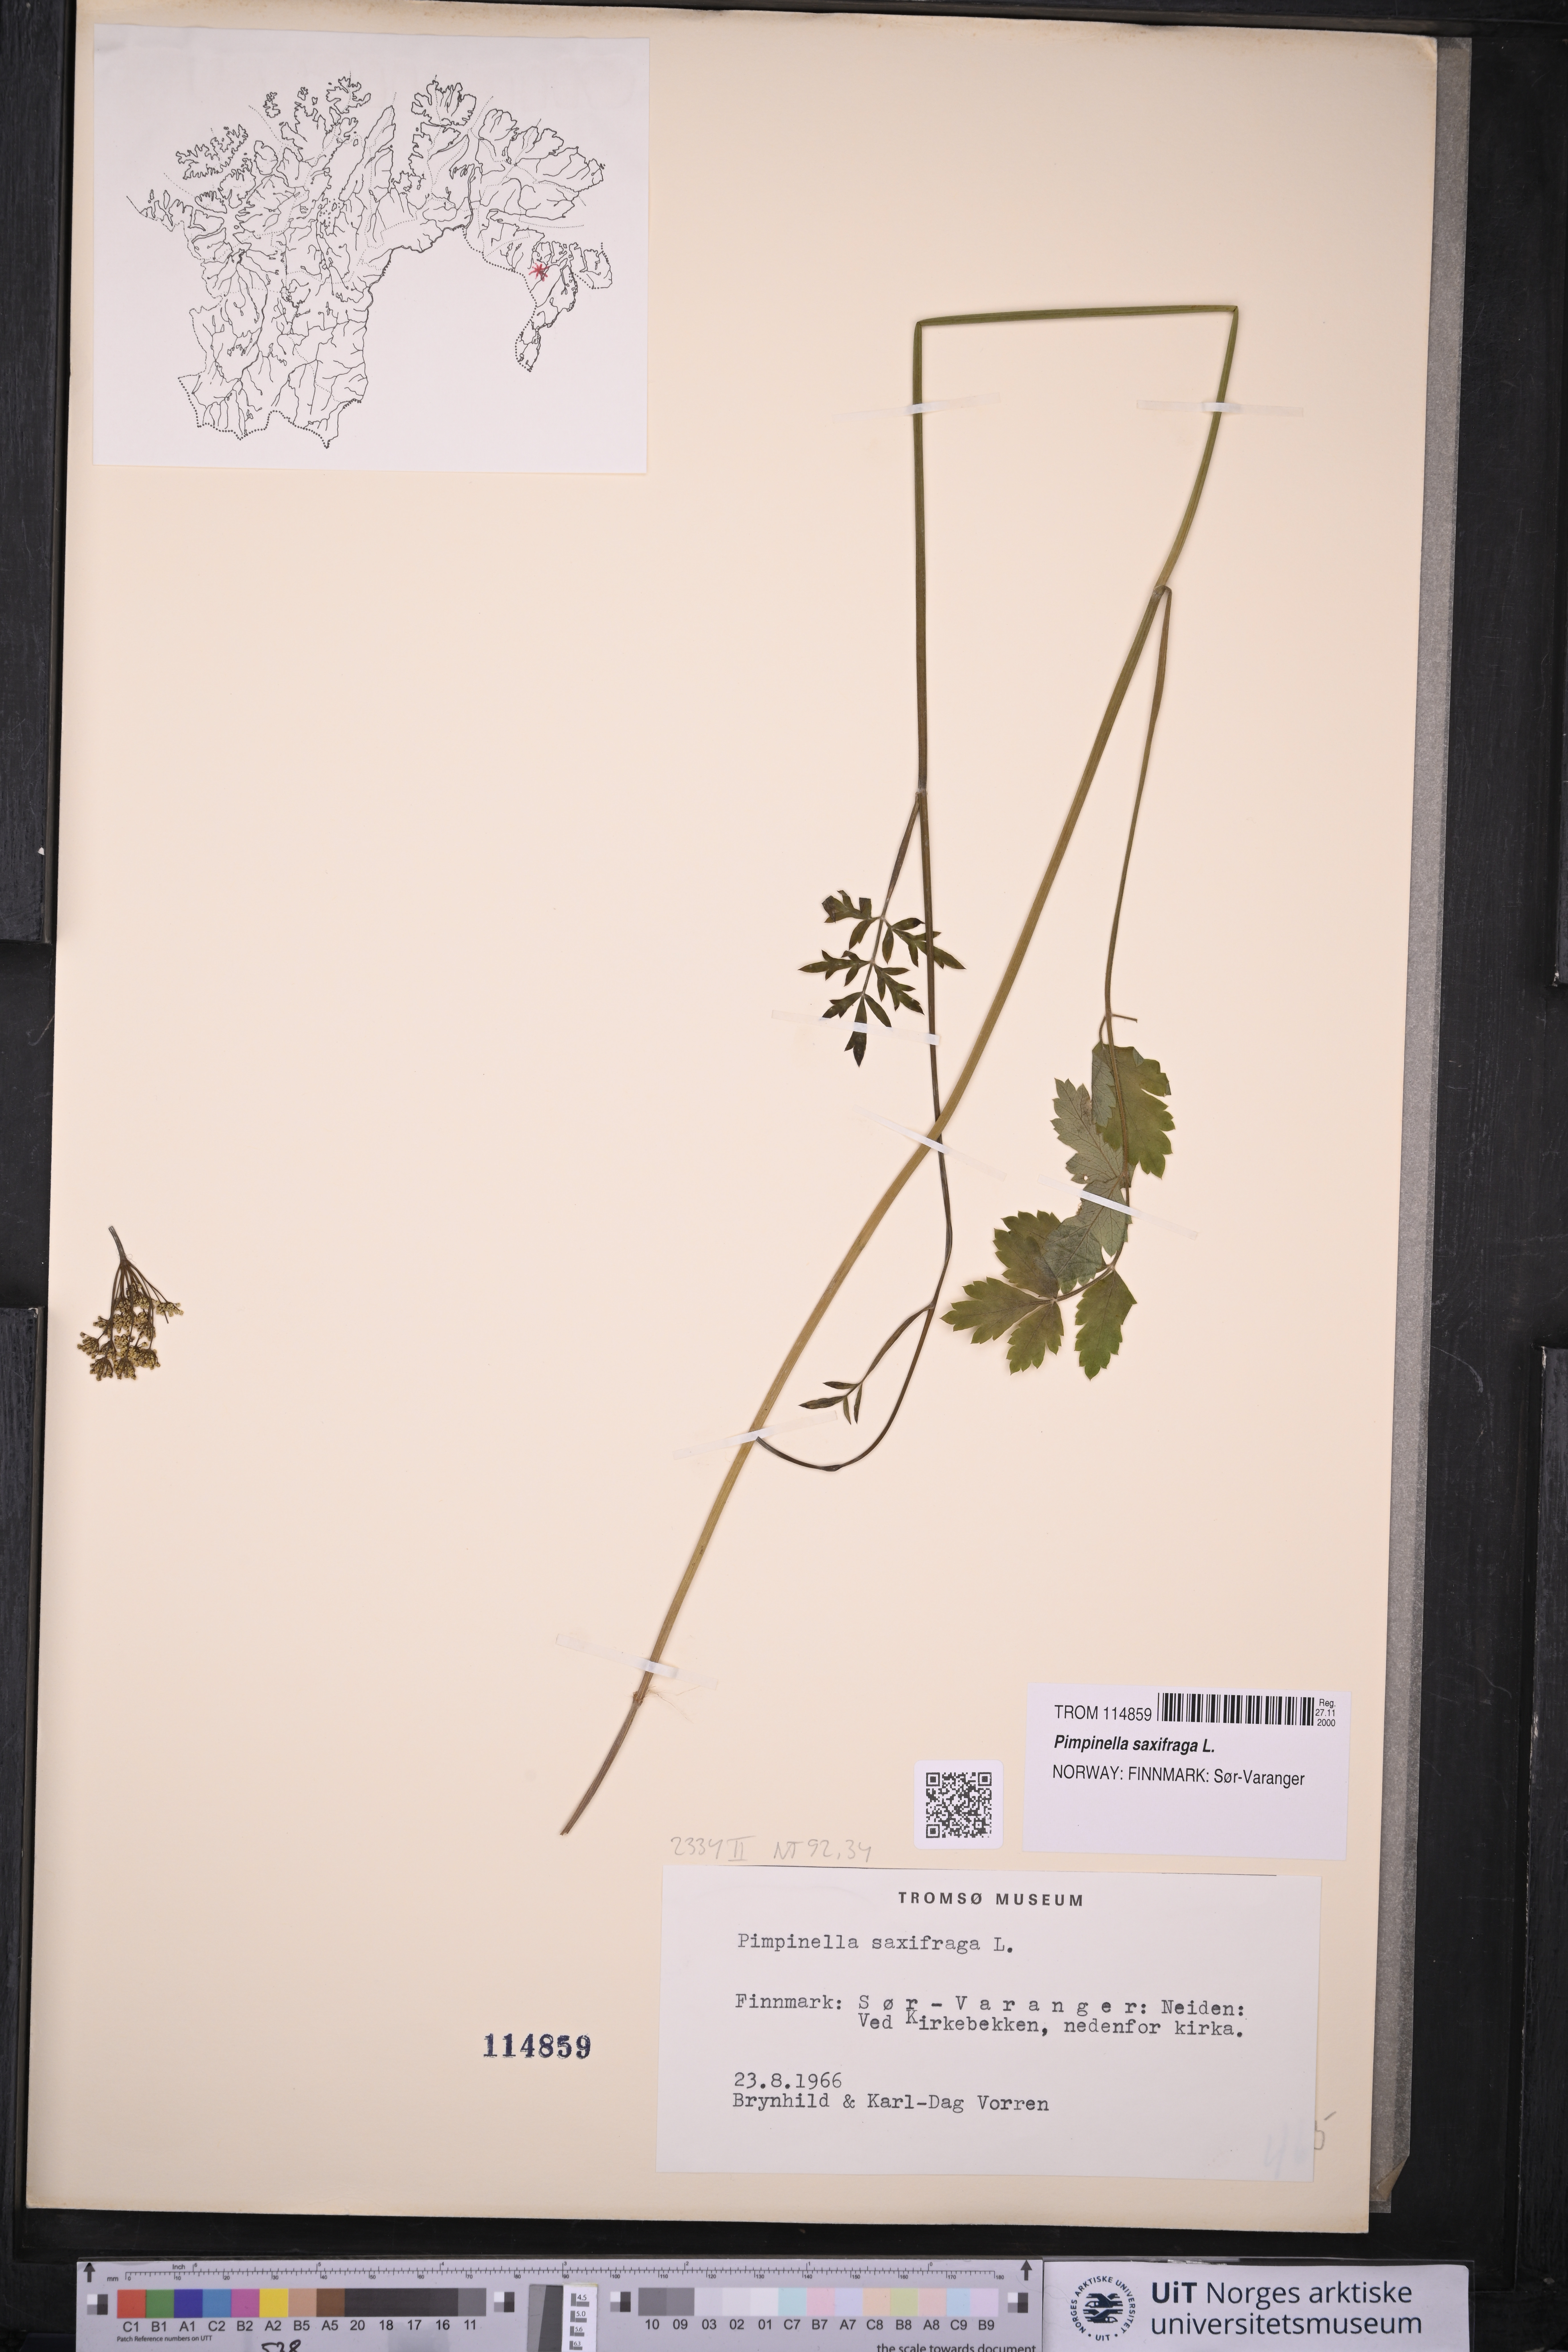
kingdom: Plantae
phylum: Tracheophyta
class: Magnoliopsida
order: Apiales
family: Apiaceae
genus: Pimpinella
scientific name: Pimpinella saxifraga
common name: Burnet-saxifrage
